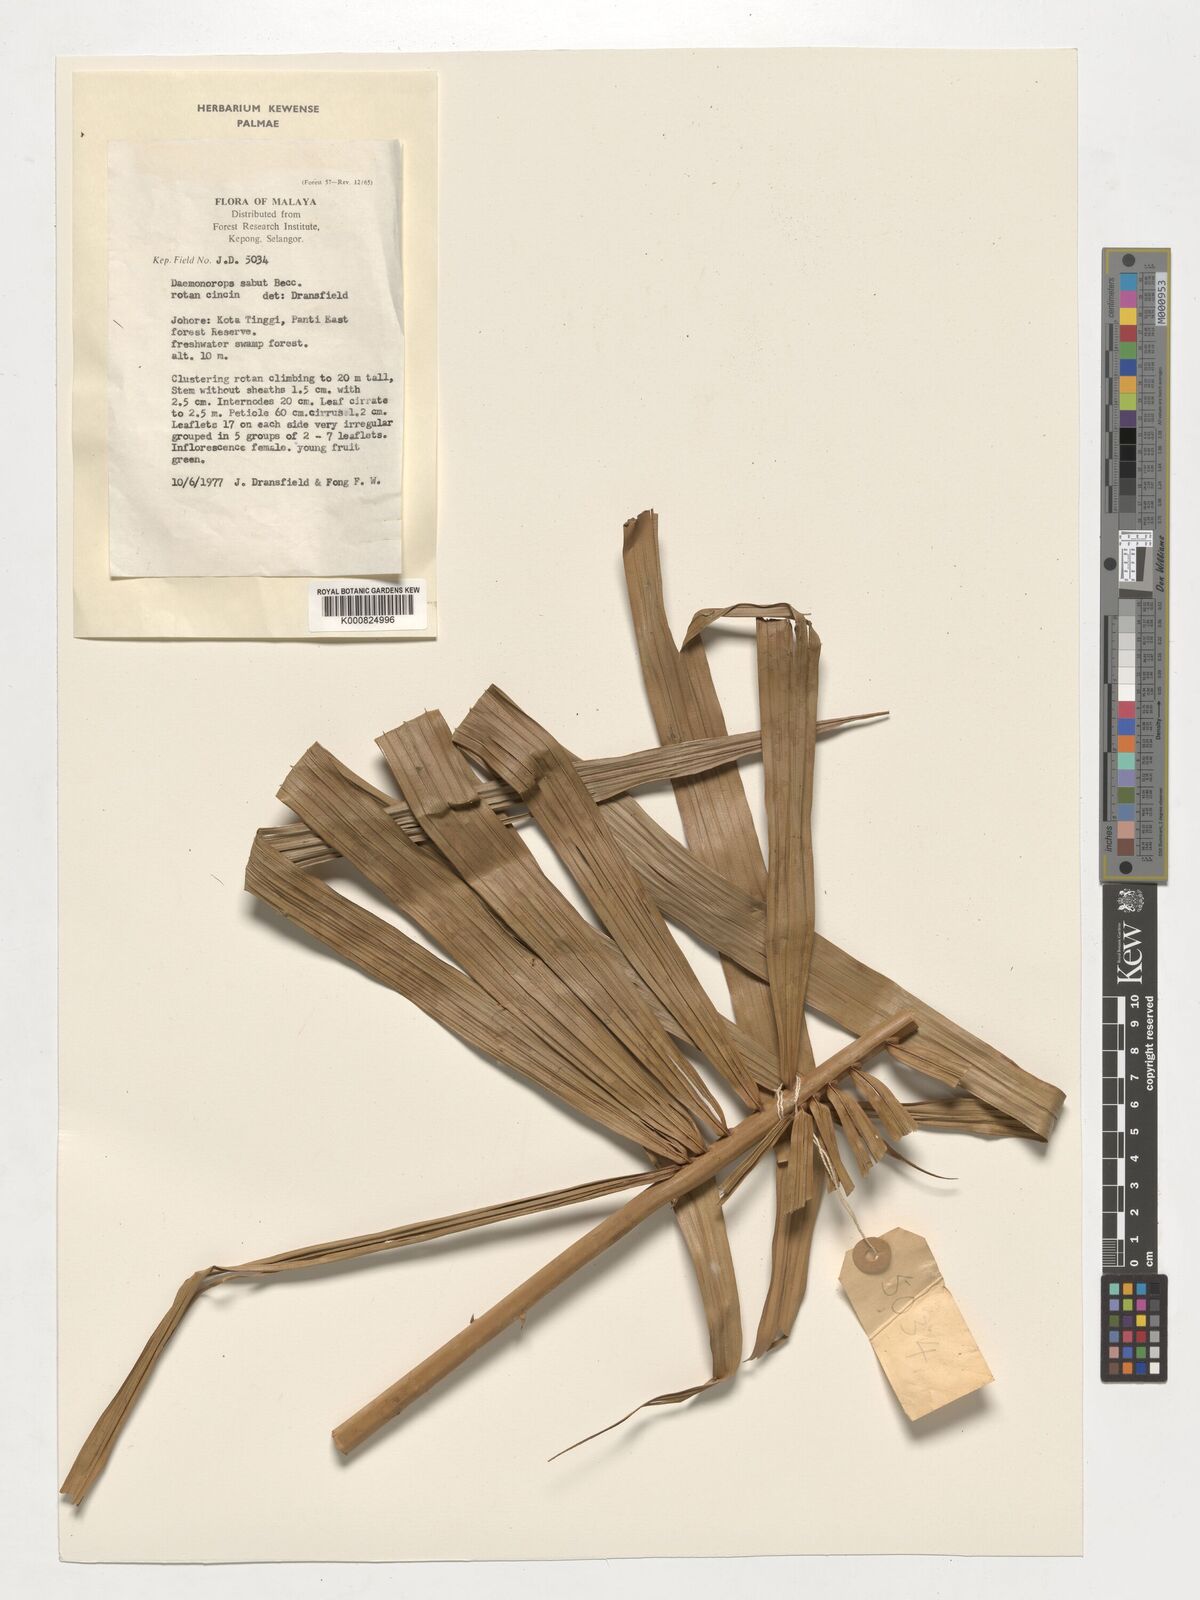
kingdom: Plantae
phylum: Tracheophyta
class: Liliopsida
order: Arecales
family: Arecaceae
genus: Calamus
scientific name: Calamus crinitus
